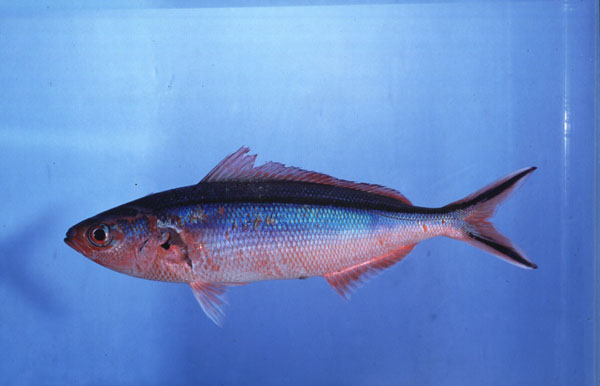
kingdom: Animalia
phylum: Chordata
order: Perciformes
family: Caesionidae
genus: Pterocaesio
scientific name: Pterocaesio tile
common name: Dark-banded fusilier
